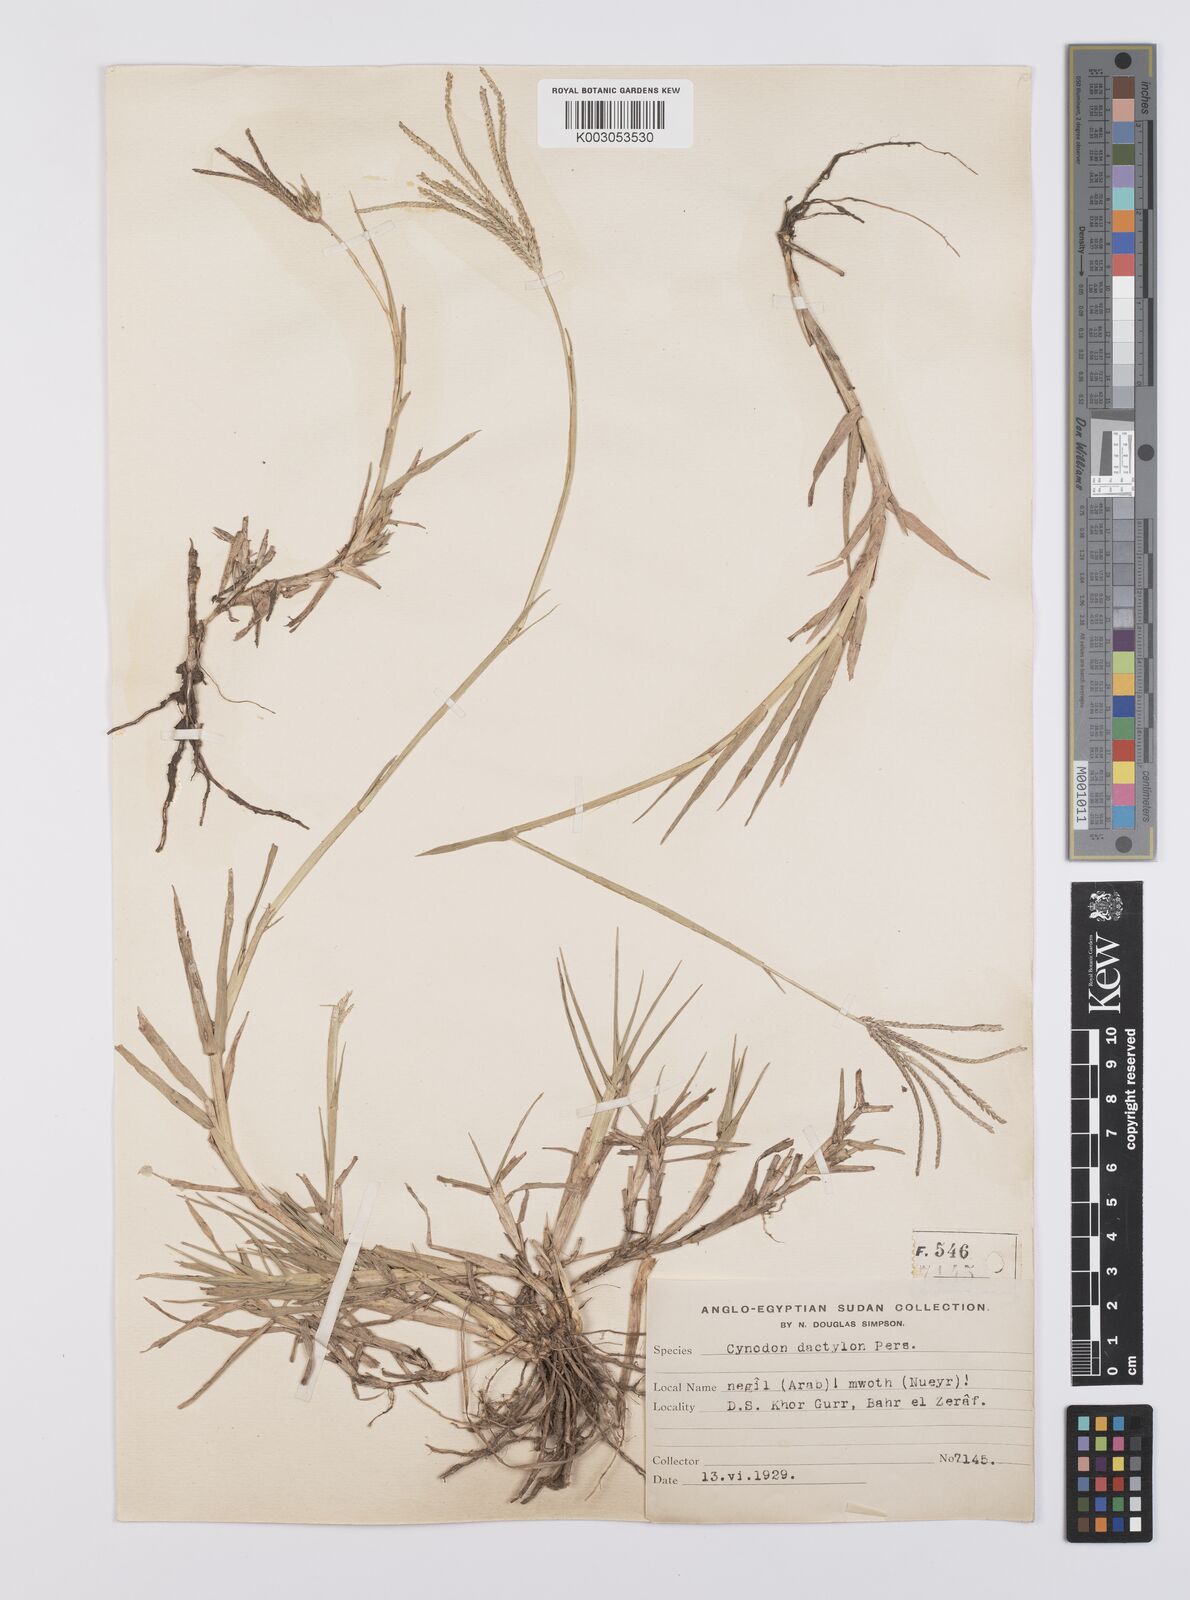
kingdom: Plantae
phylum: Tracheophyta
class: Liliopsida
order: Poales
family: Poaceae
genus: Cynodon
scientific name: Cynodon dactylon
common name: Bermuda grass
